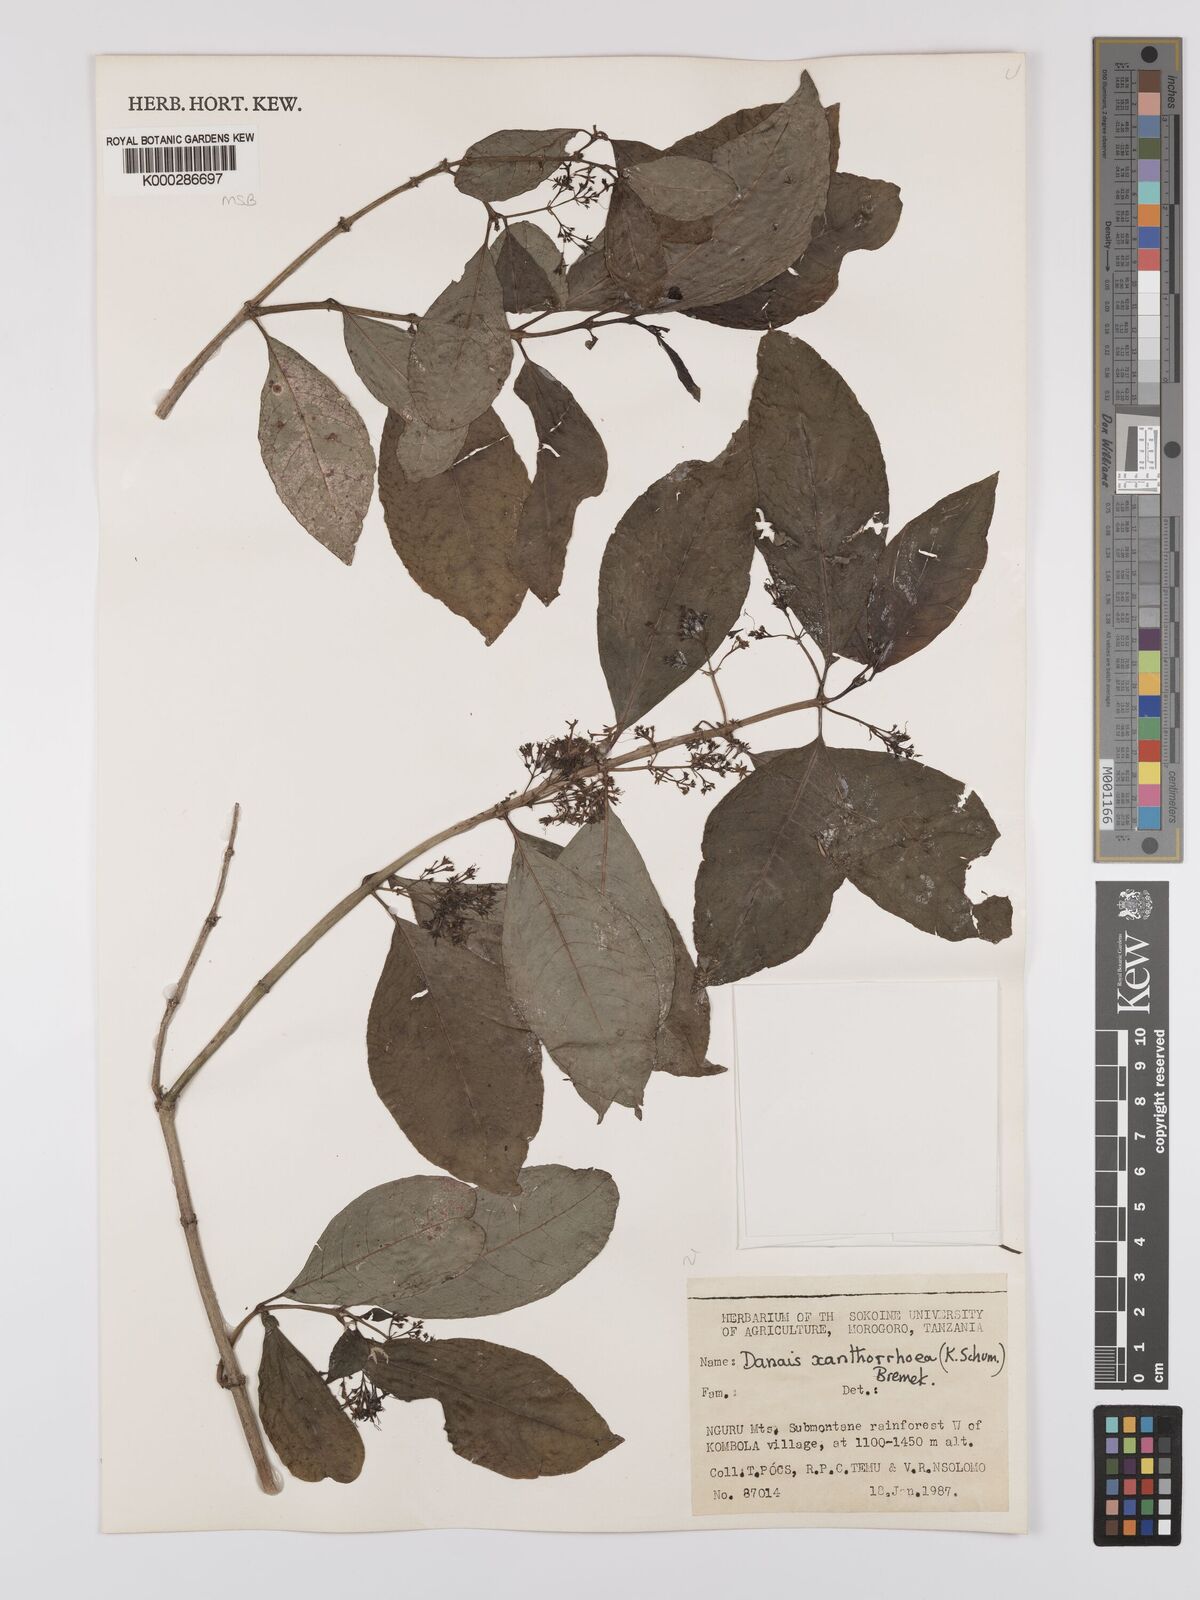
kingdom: Plantae
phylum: Tracheophyta
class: Magnoliopsida
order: Gentianales
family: Rubiaceae
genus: Danais
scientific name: Danais xanthorrhoea
